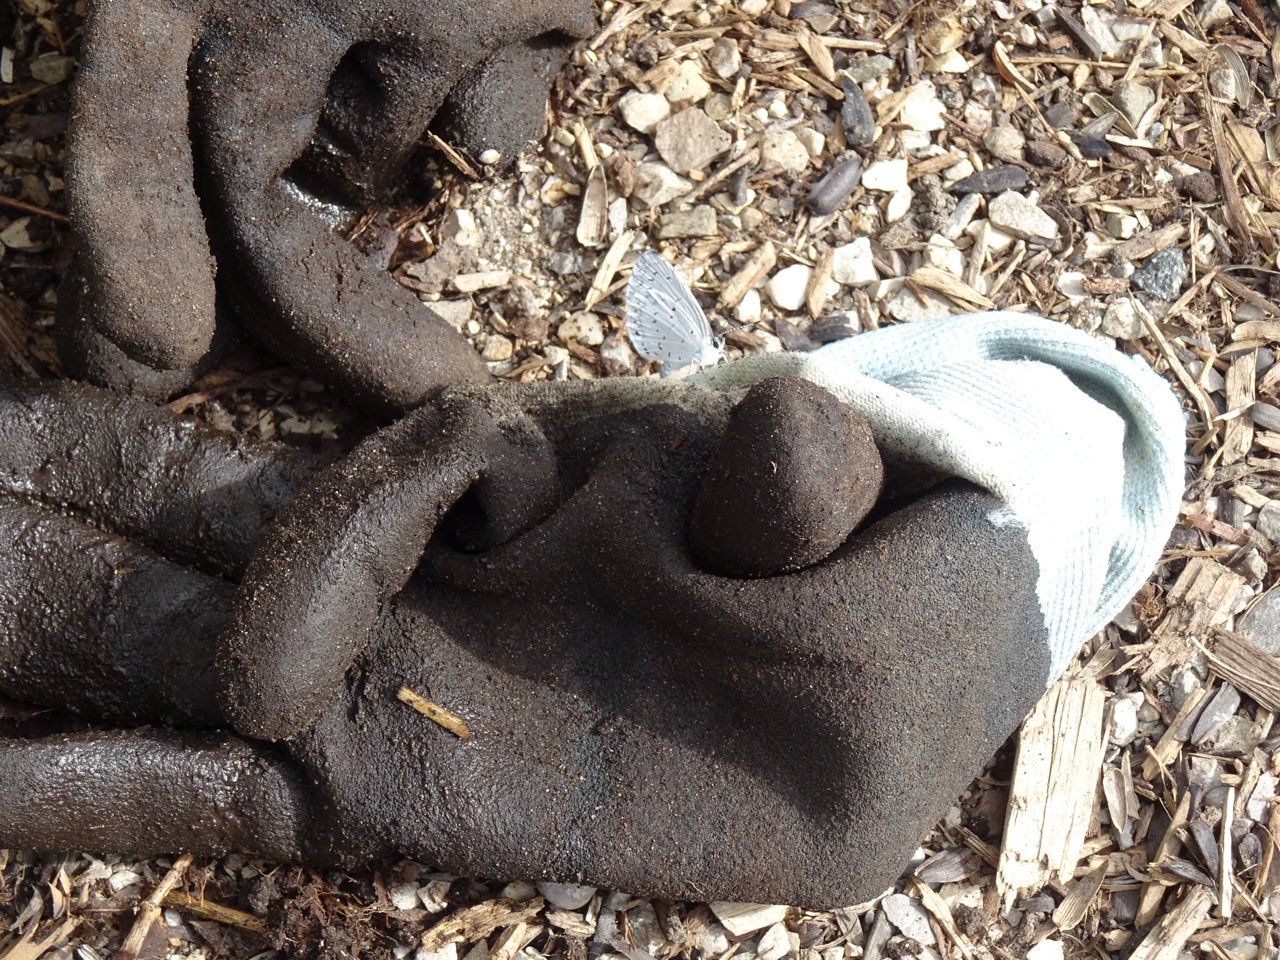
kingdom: Animalia
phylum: Arthropoda
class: Insecta
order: Lepidoptera
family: Lycaenidae
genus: Celastrina
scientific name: Celastrina
